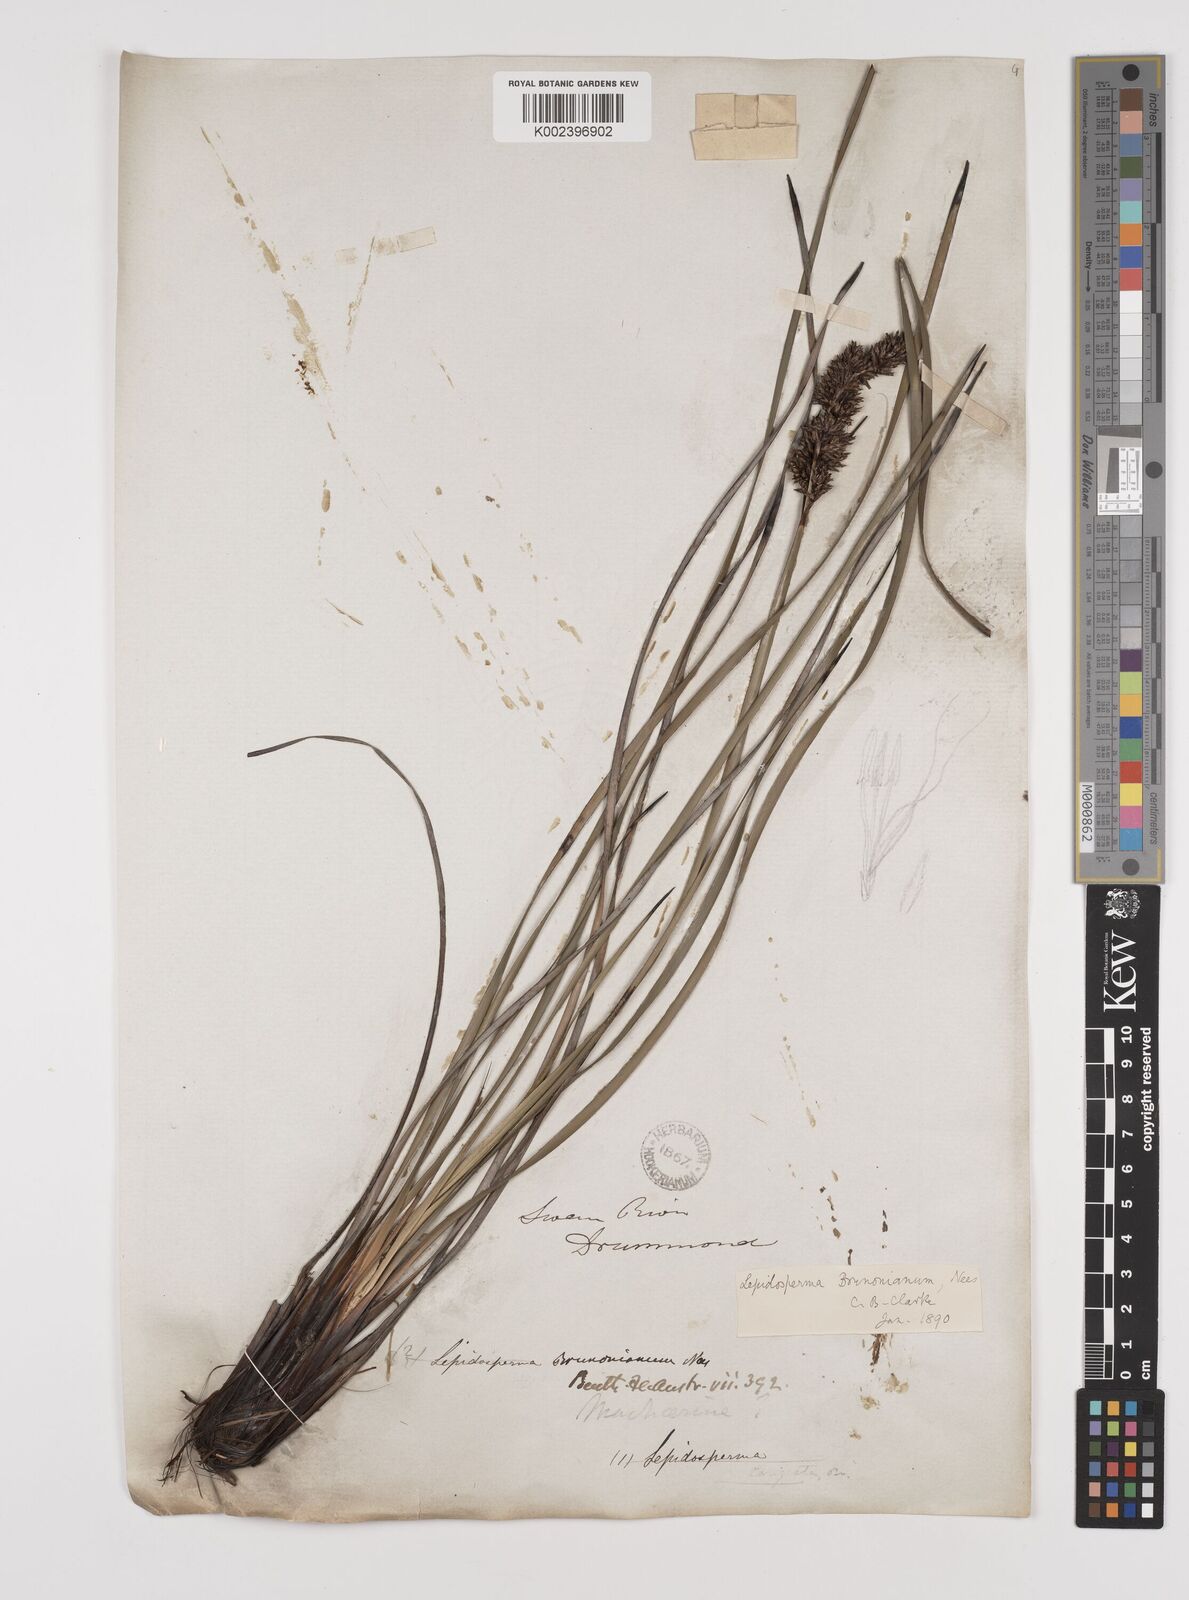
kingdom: Plantae
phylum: Tracheophyta
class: Liliopsida
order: Poales
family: Cyperaceae
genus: Lepidosperma
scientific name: Lepidosperma sieberi
